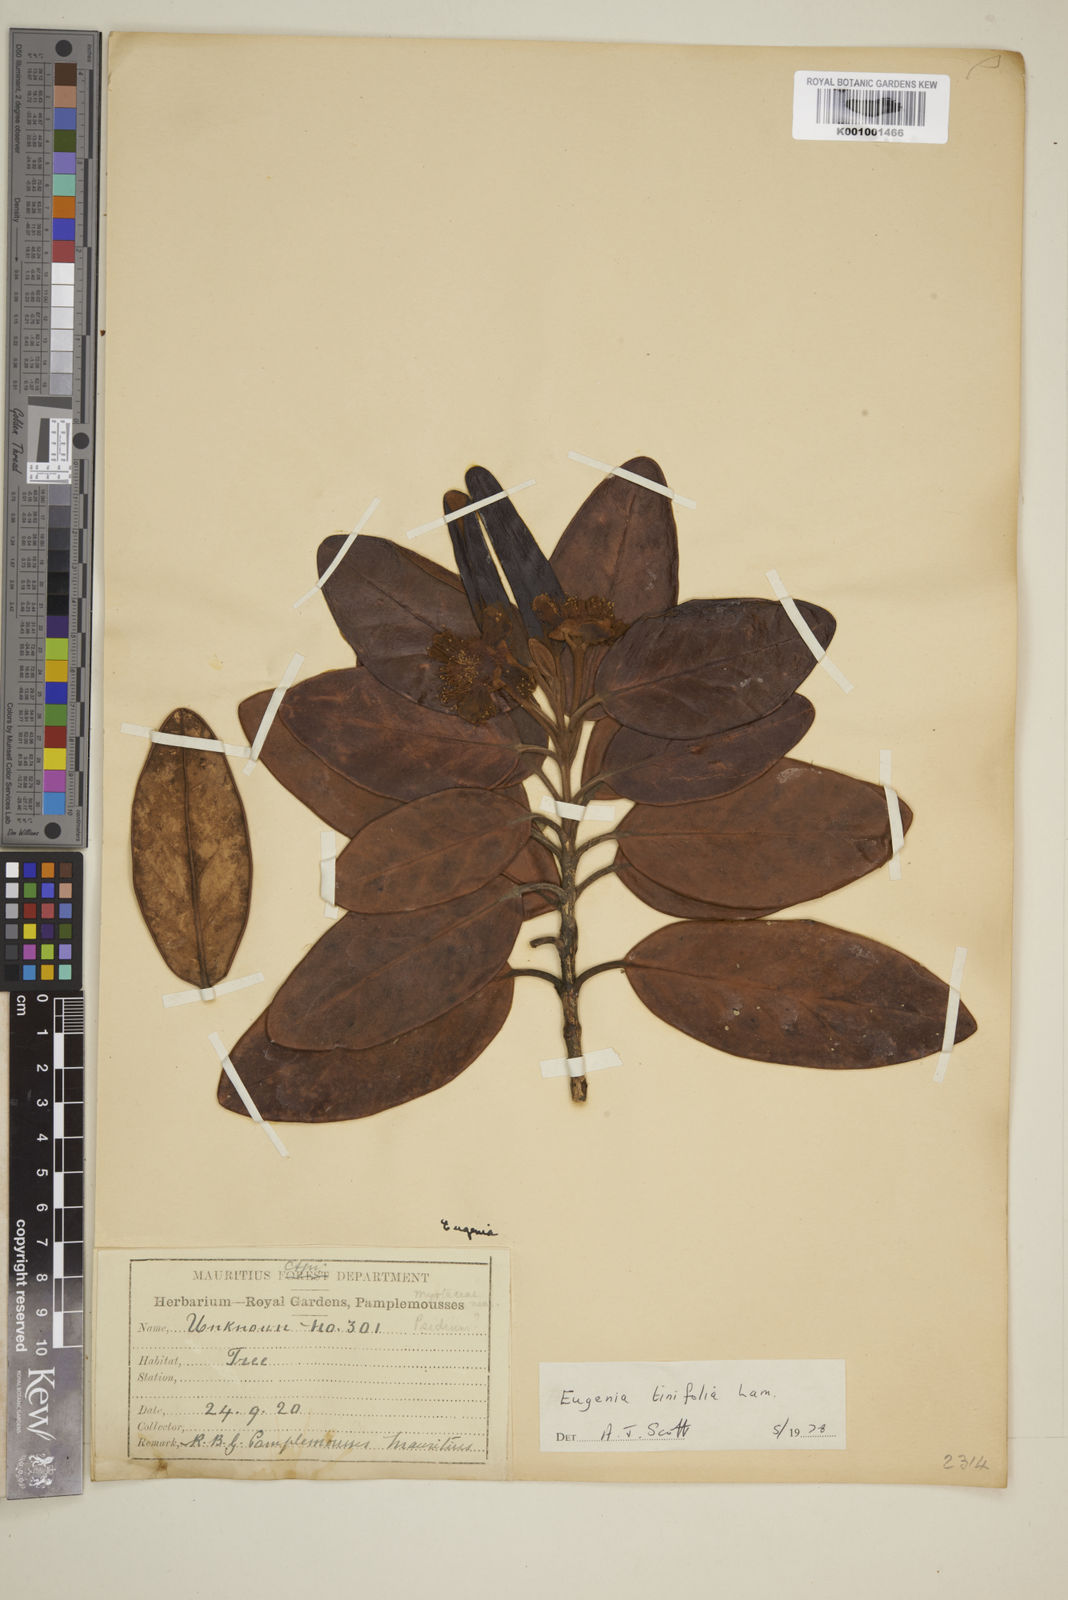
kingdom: Plantae
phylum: Tracheophyta
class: Magnoliopsida
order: Myrtales
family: Myrtaceae
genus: Eugenia
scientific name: Eugenia tinifolia
